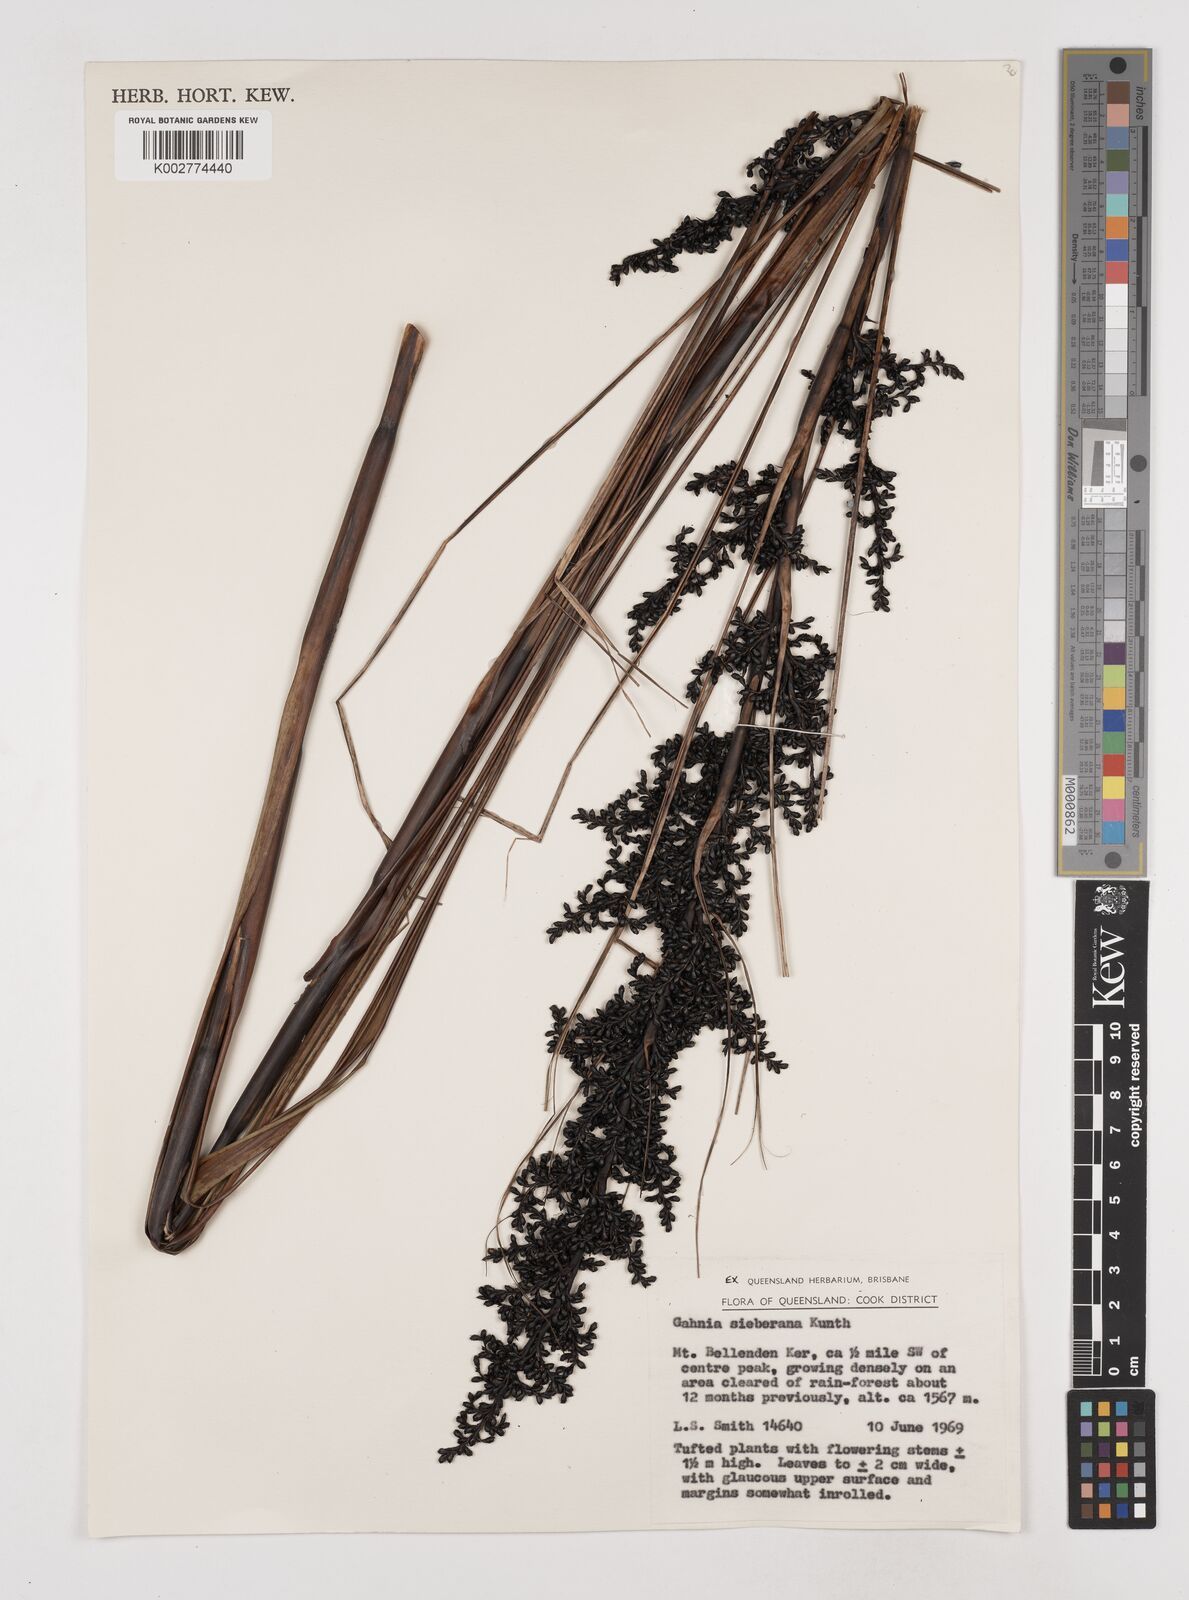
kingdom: Plantae
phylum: Tracheophyta
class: Liliopsida
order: Poales
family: Cyperaceae
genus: Gahnia
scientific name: Gahnia sieberiana
